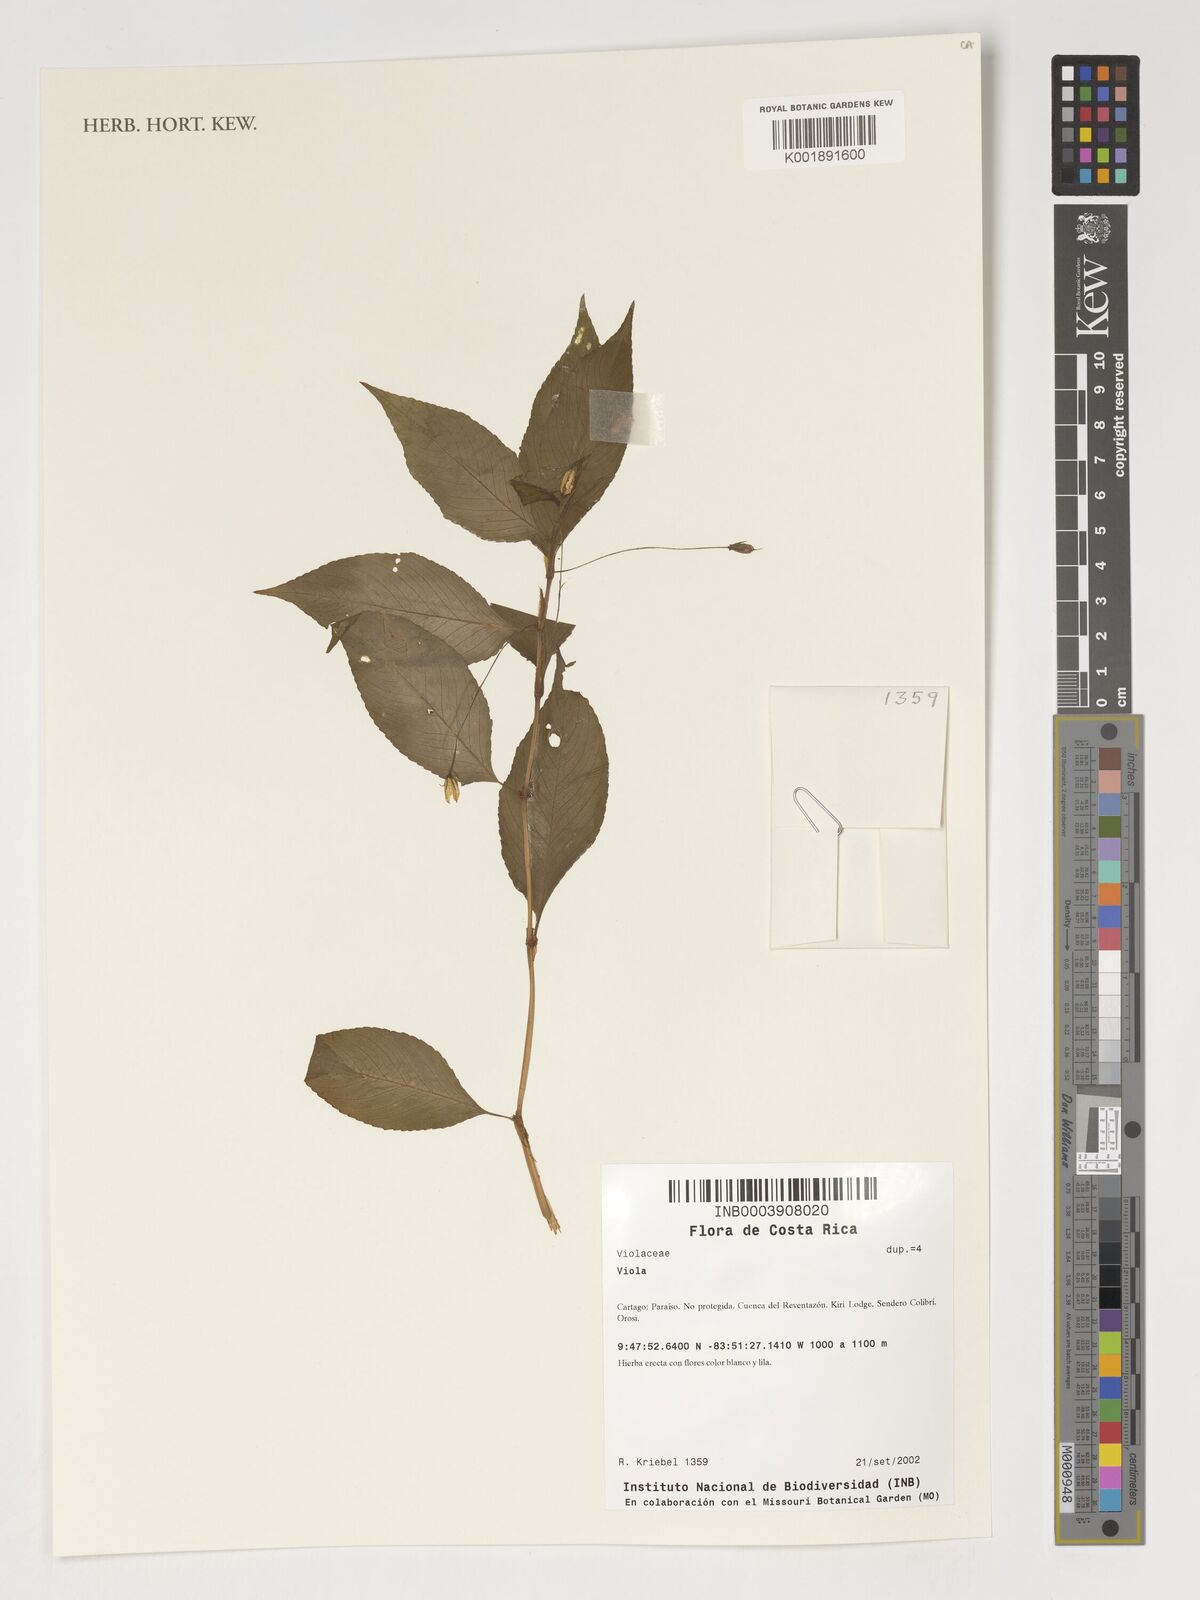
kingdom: Plantae
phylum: Tracheophyta
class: Magnoliopsida
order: Malpighiales
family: Violaceae
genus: Viola
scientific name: Viola
